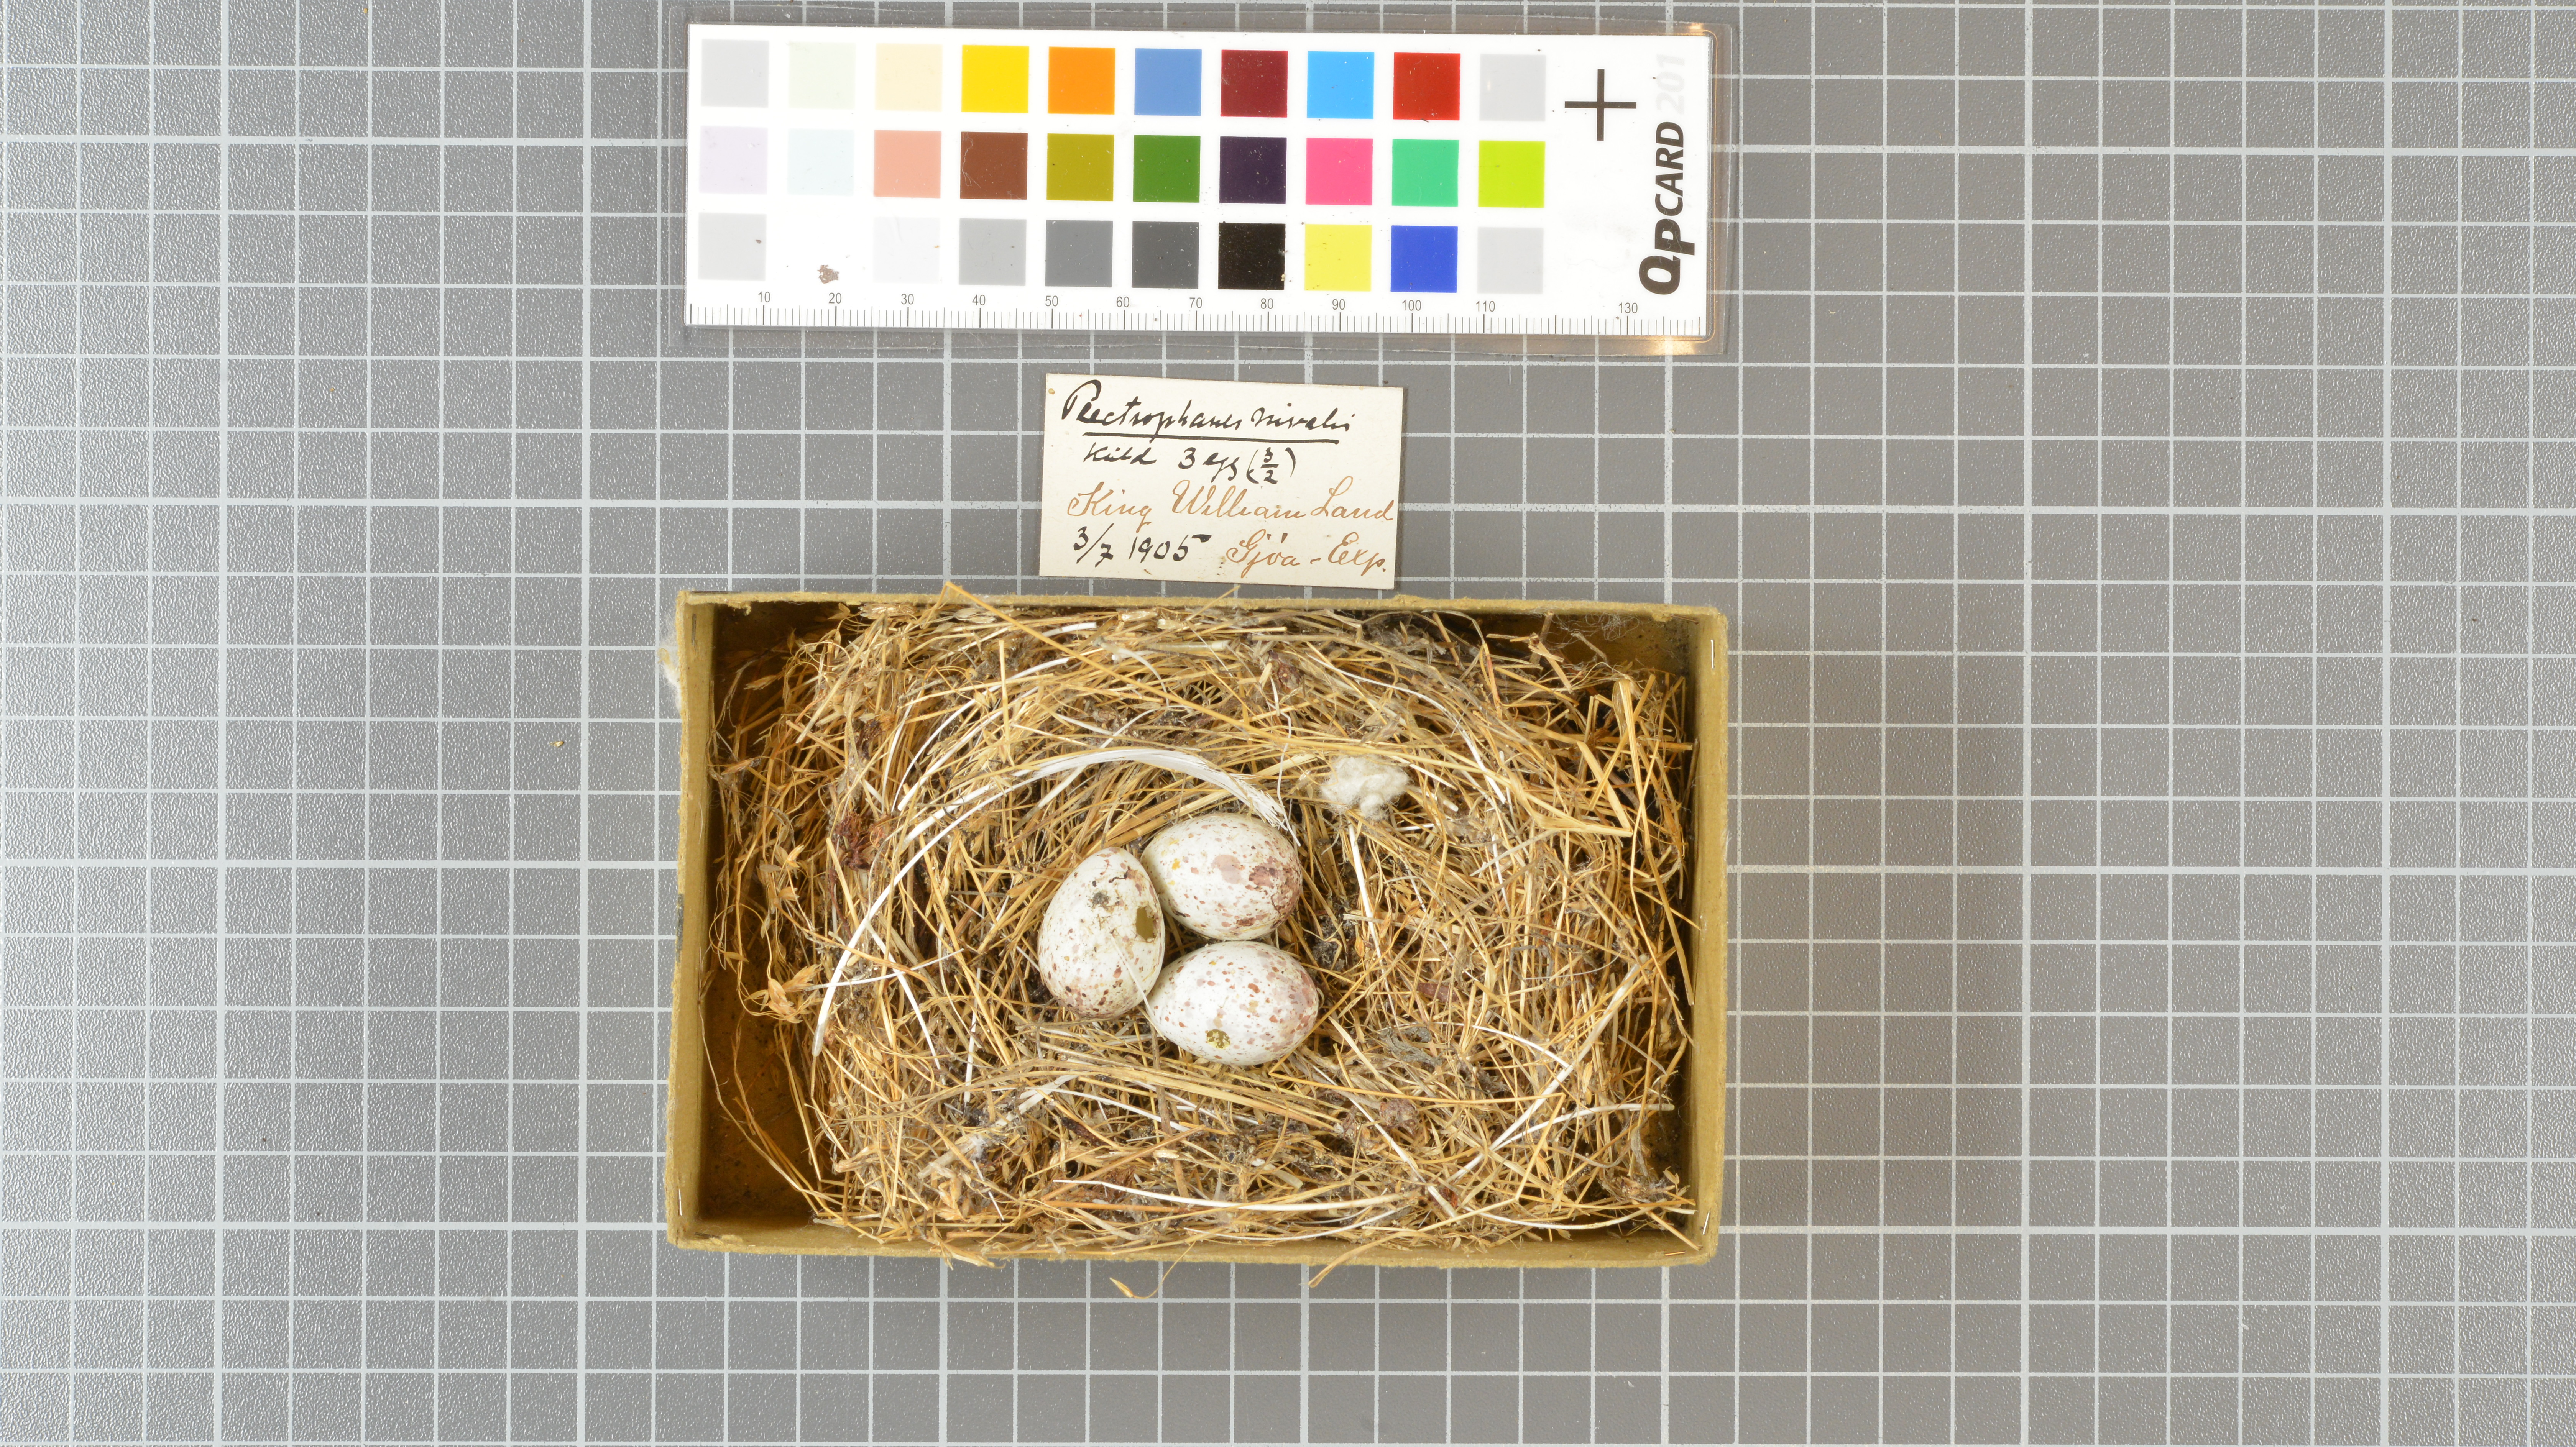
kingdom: Animalia
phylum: Chordata
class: Aves
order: Passeriformes
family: Calcariidae
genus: Plectrophenax
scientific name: Plectrophenax nivalis
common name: Snow bunting
